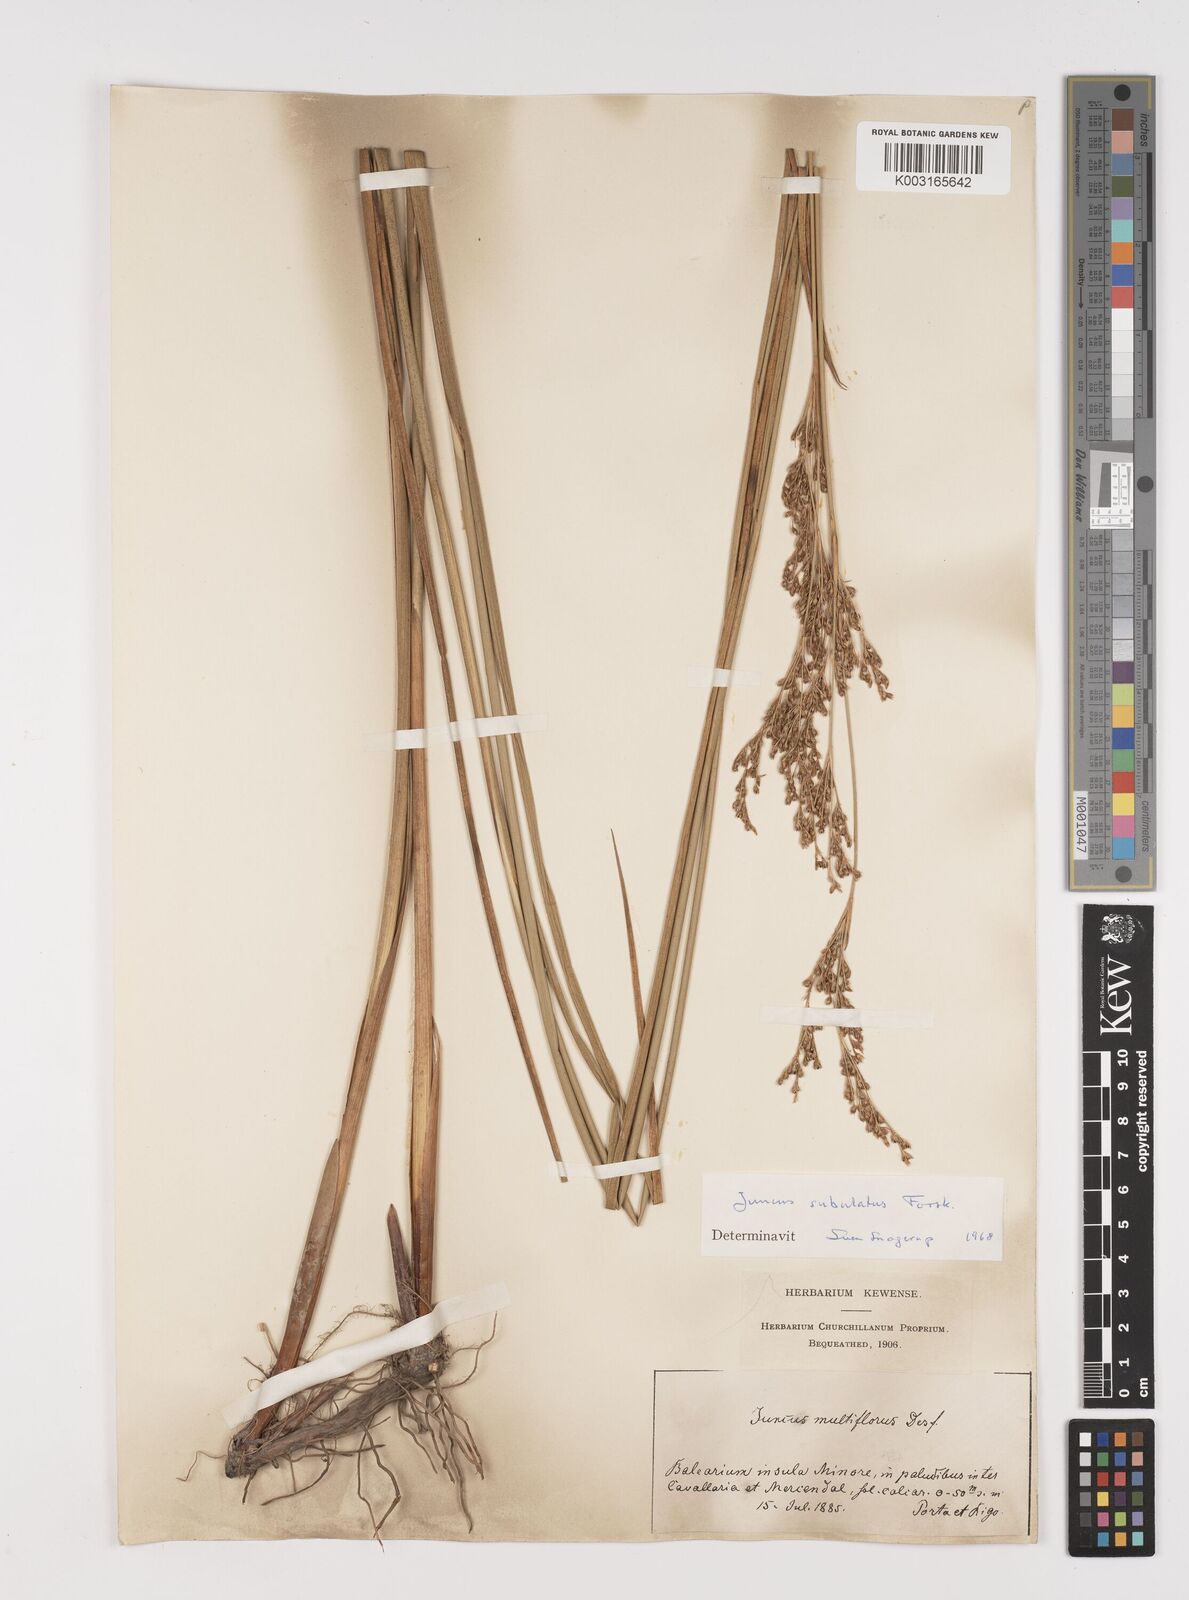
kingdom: Plantae
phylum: Tracheophyta
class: Liliopsida
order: Poales
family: Juncaceae
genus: Juncus
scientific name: Juncus subulatus
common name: Somerset rush
